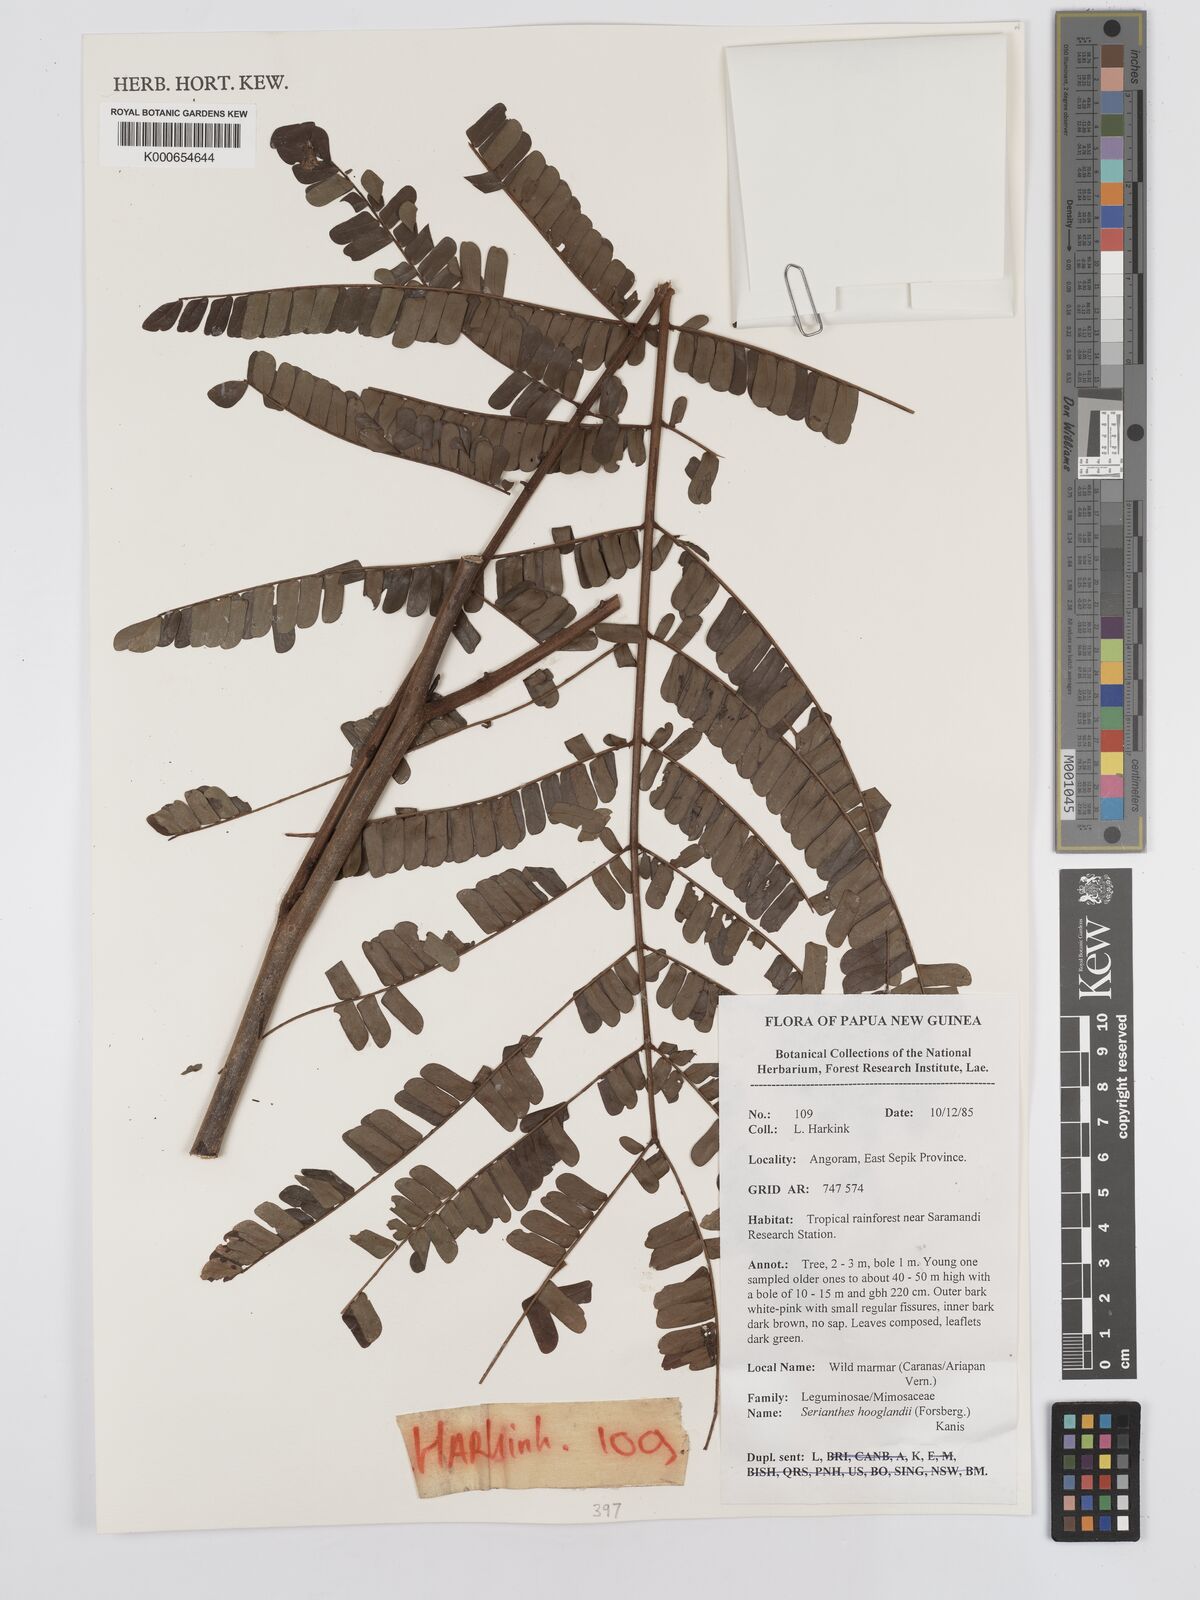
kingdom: Plantae
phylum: Tracheophyta
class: Magnoliopsida
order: Fabales
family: Fabaceae
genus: Serianthes
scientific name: Serianthes hooglandii
